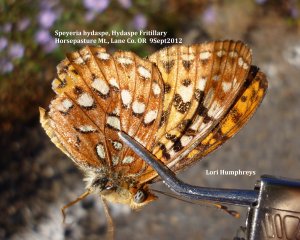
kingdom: Animalia
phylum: Arthropoda
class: Insecta
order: Lepidoptera
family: Nymphalidae
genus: Speyeria
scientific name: Speyeria hydaspe
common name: Hydaspe Fritillary
